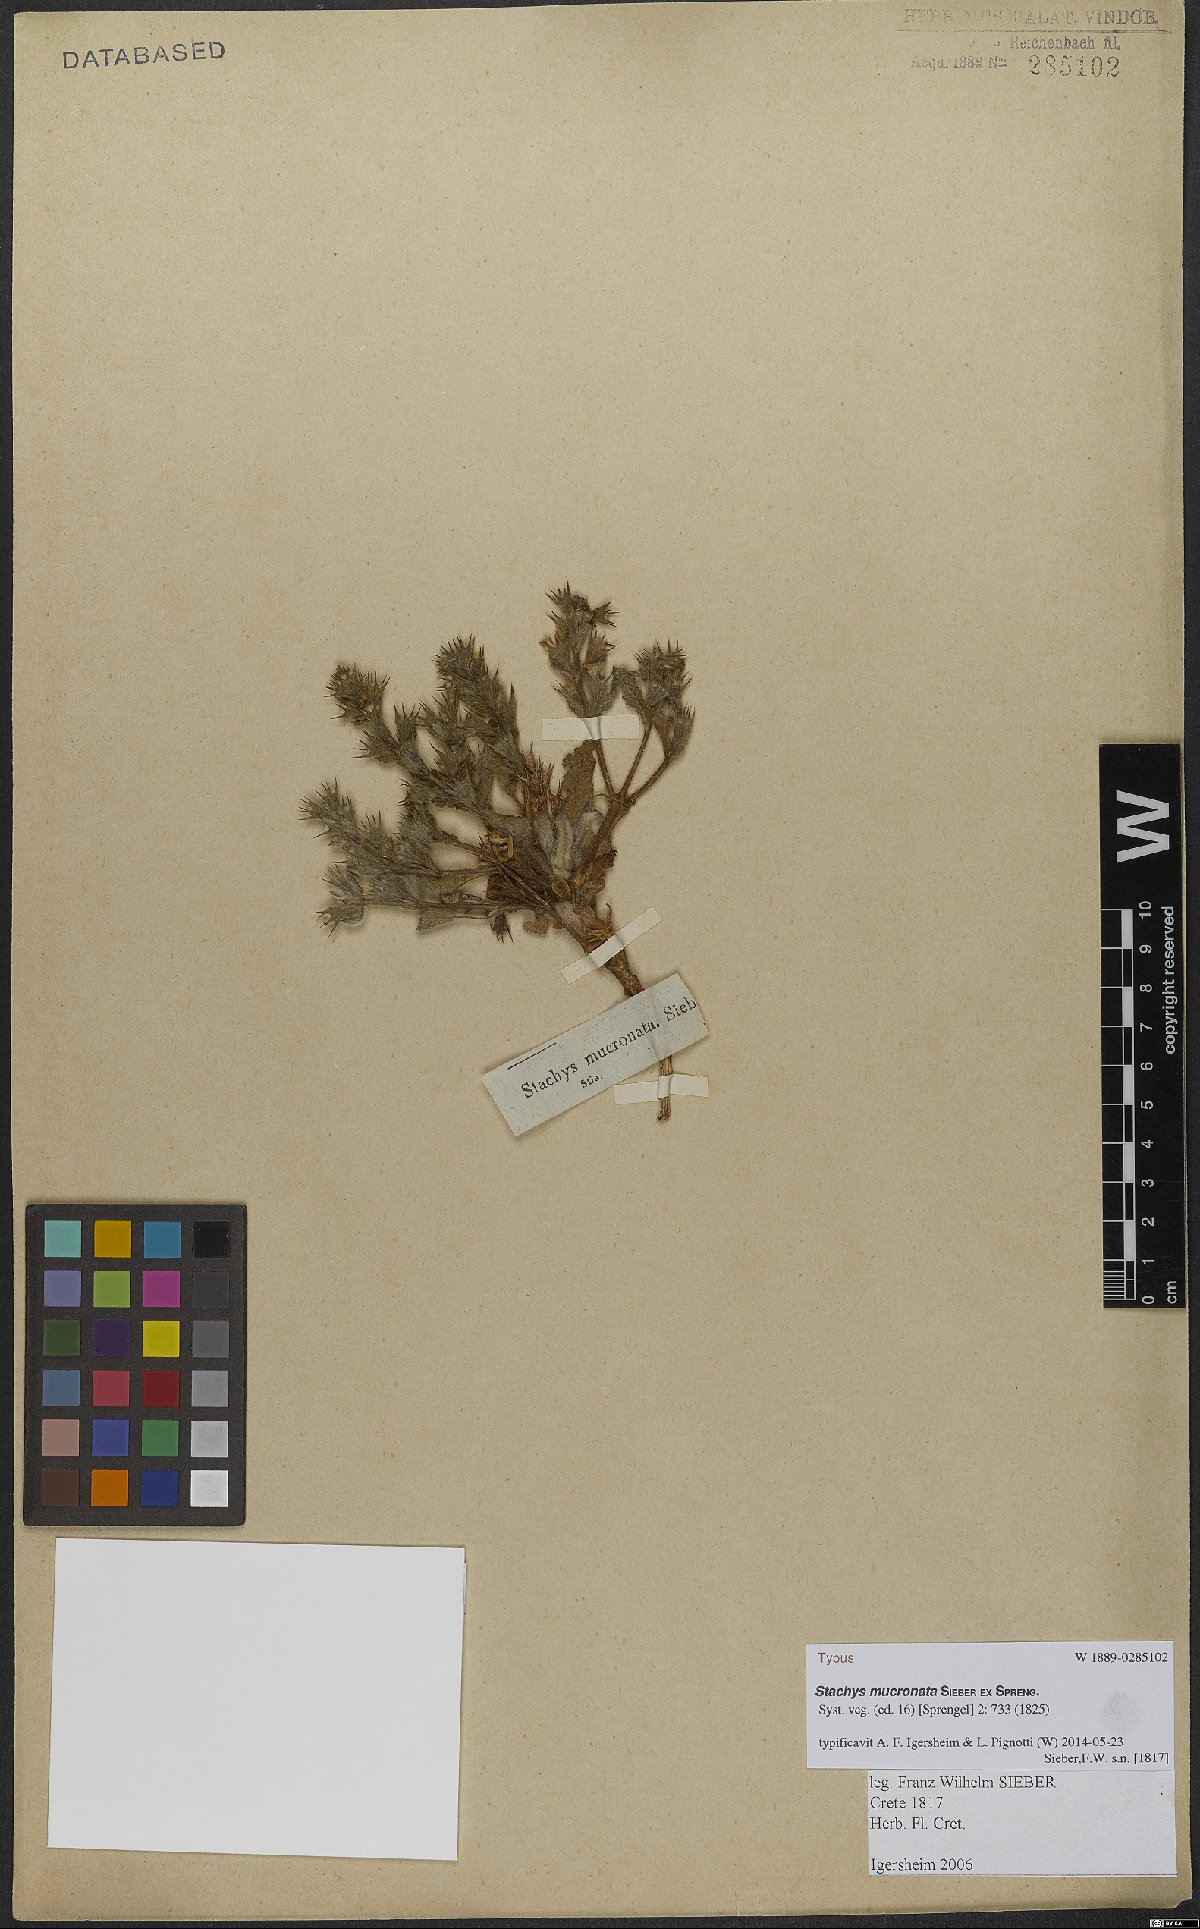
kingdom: Plantae
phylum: Tracheophyta
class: Magnoliopsida
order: Lamiales
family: Lamiaceae
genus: Stachys
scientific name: Stachys mucronata
